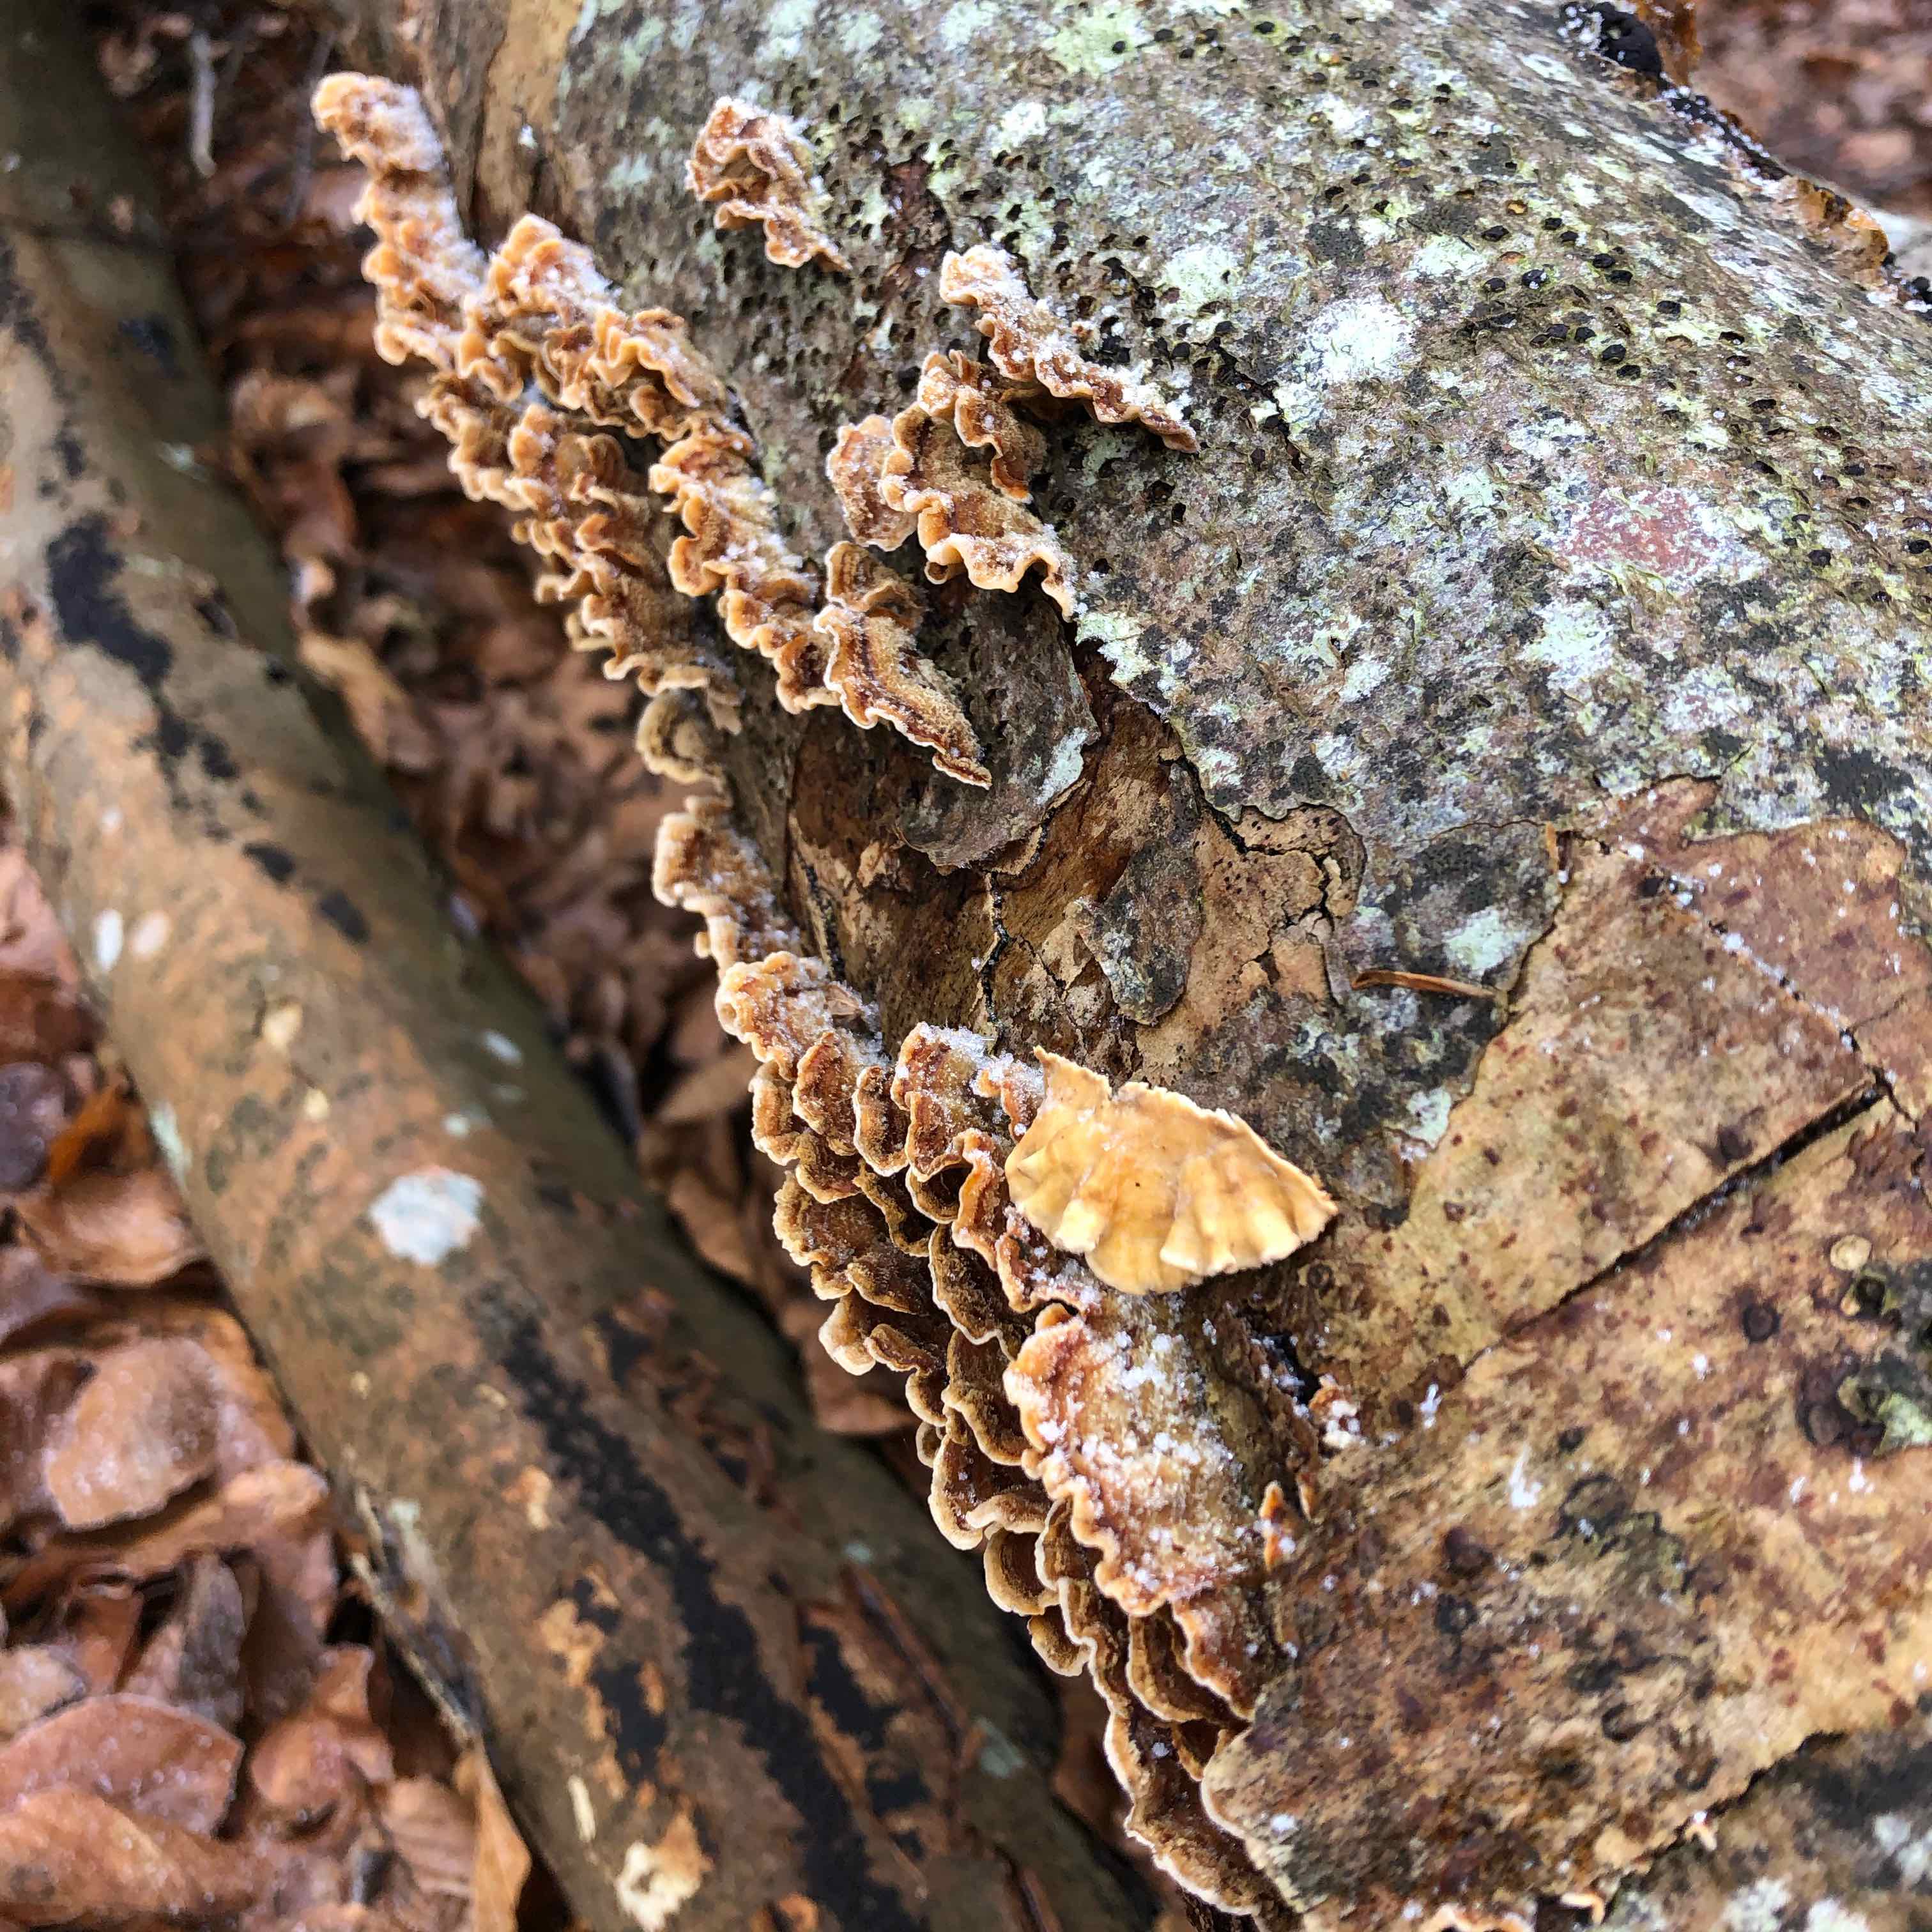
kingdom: Fungi
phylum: Basidiomycota
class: Agaricomycetes
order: Russulales
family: Stereaceae
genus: Stereum
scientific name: Stereum hirsutum
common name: håret lædersvamp
